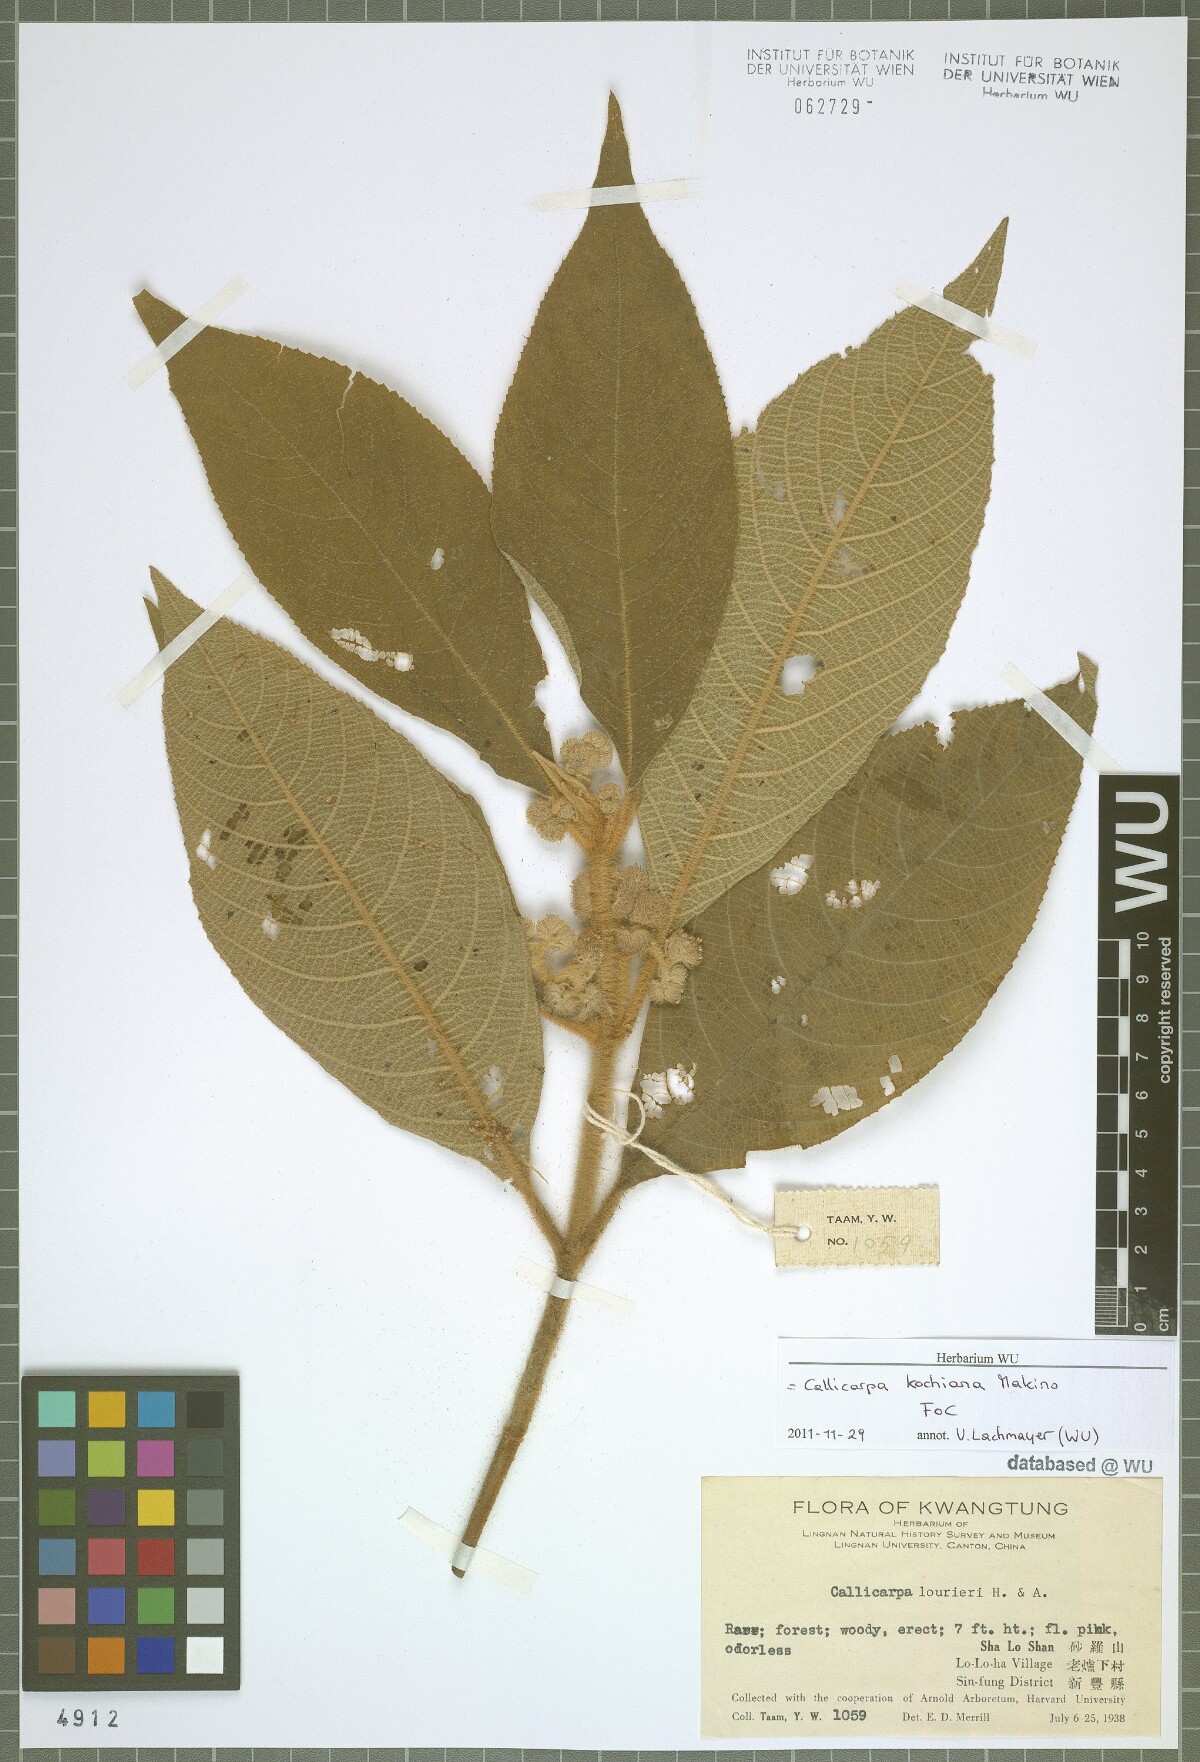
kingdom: Plantae
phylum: Tracheophyta
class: Magnoliopsida
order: Lamiales
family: Lamiaceae
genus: Callicarpa
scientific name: Callicarpa kochiana
